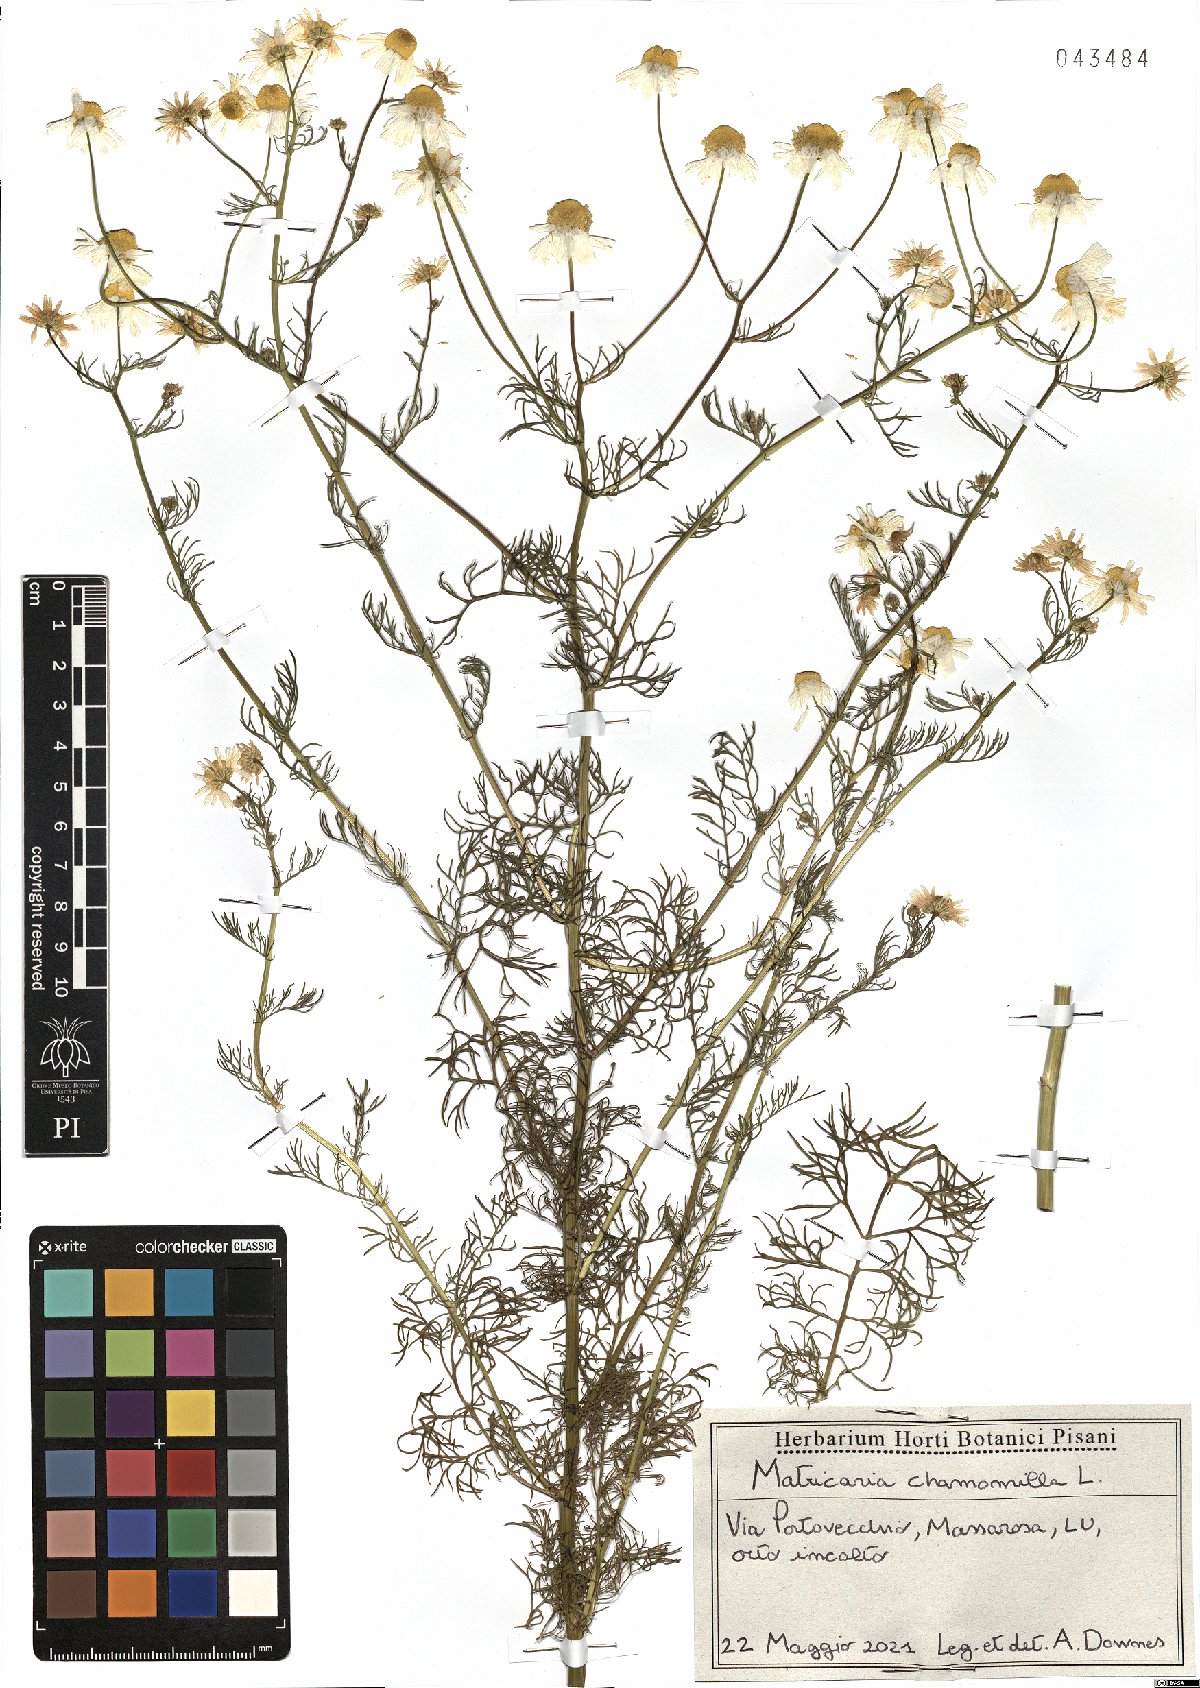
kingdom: Plantae
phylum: Tracheophyta
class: Magnoliopsida
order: Asterales
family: Asteraceae
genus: Matricaria
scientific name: Matricaria chamomilla
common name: Scented mayweed
